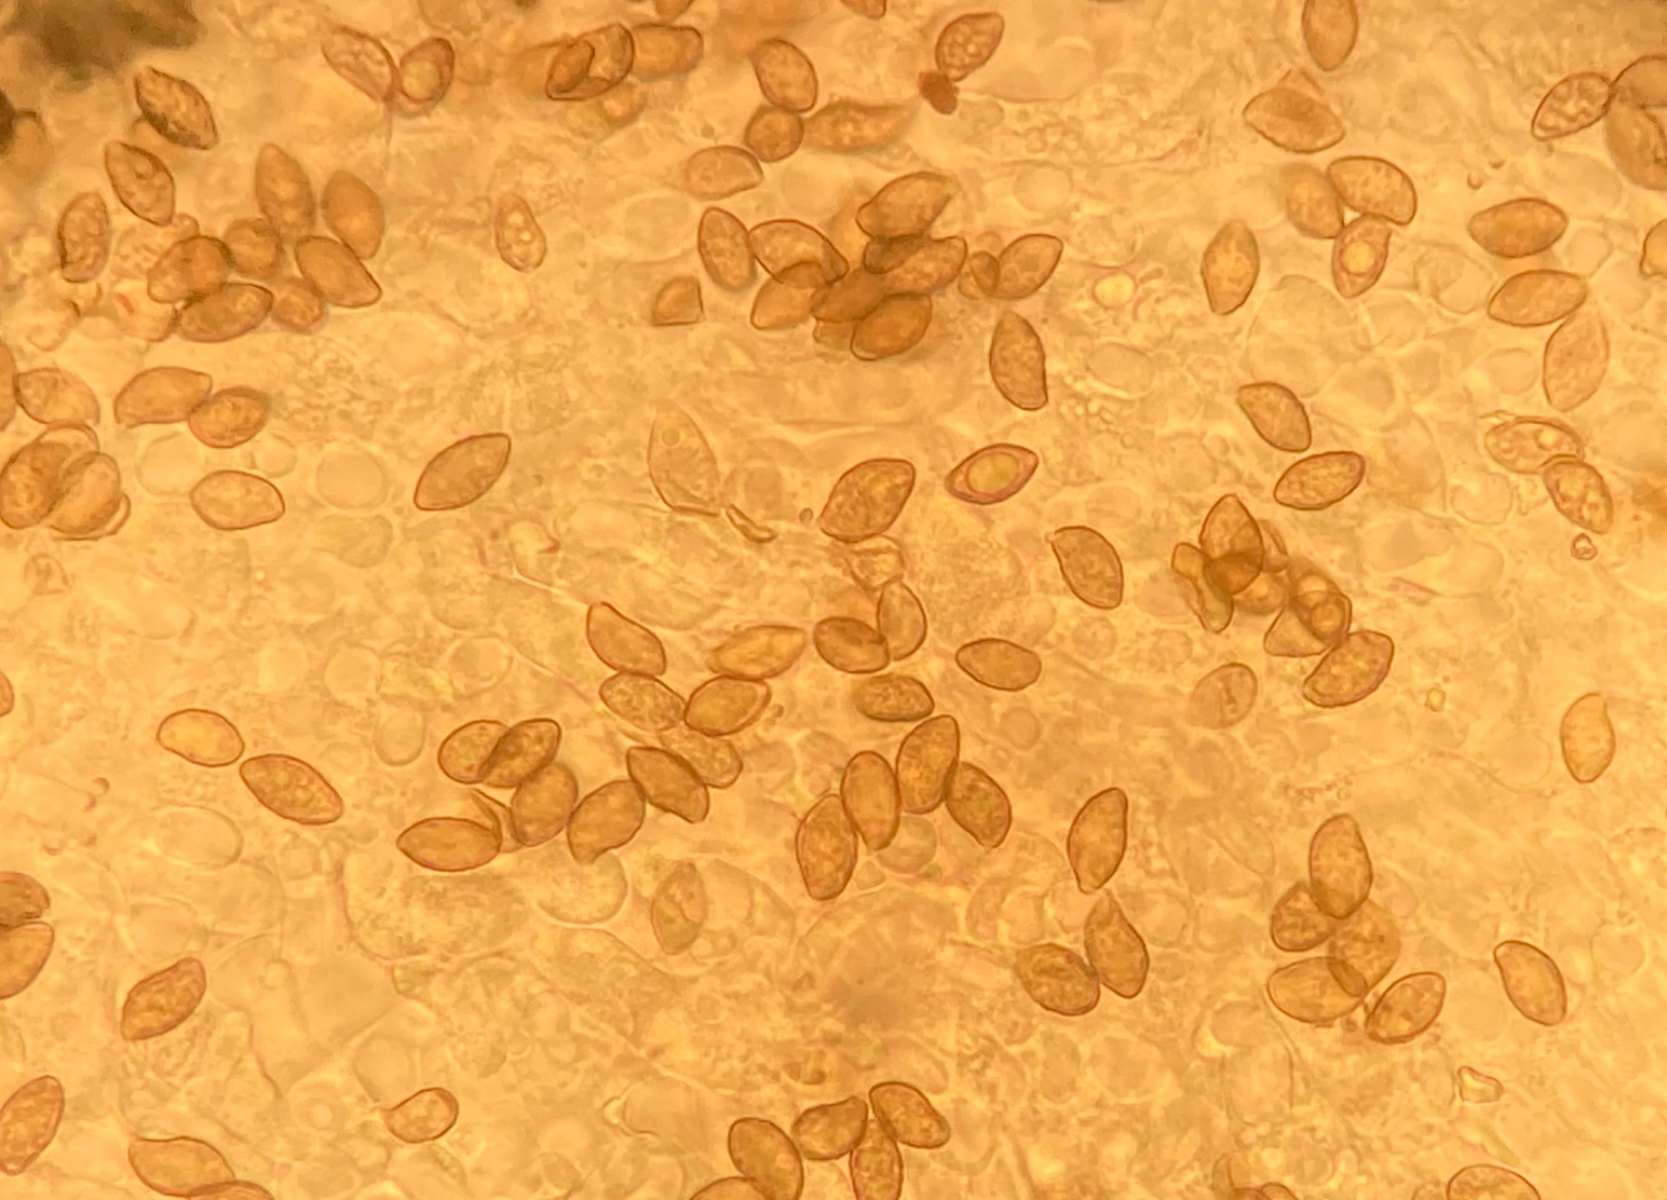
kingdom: Fungi
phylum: Basidiomycota
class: Agaricomycetes
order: Agaricales
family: Tricholomataceae
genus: Melanomphalia
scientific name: Melanomphalia nigrescens
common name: sørgehat
